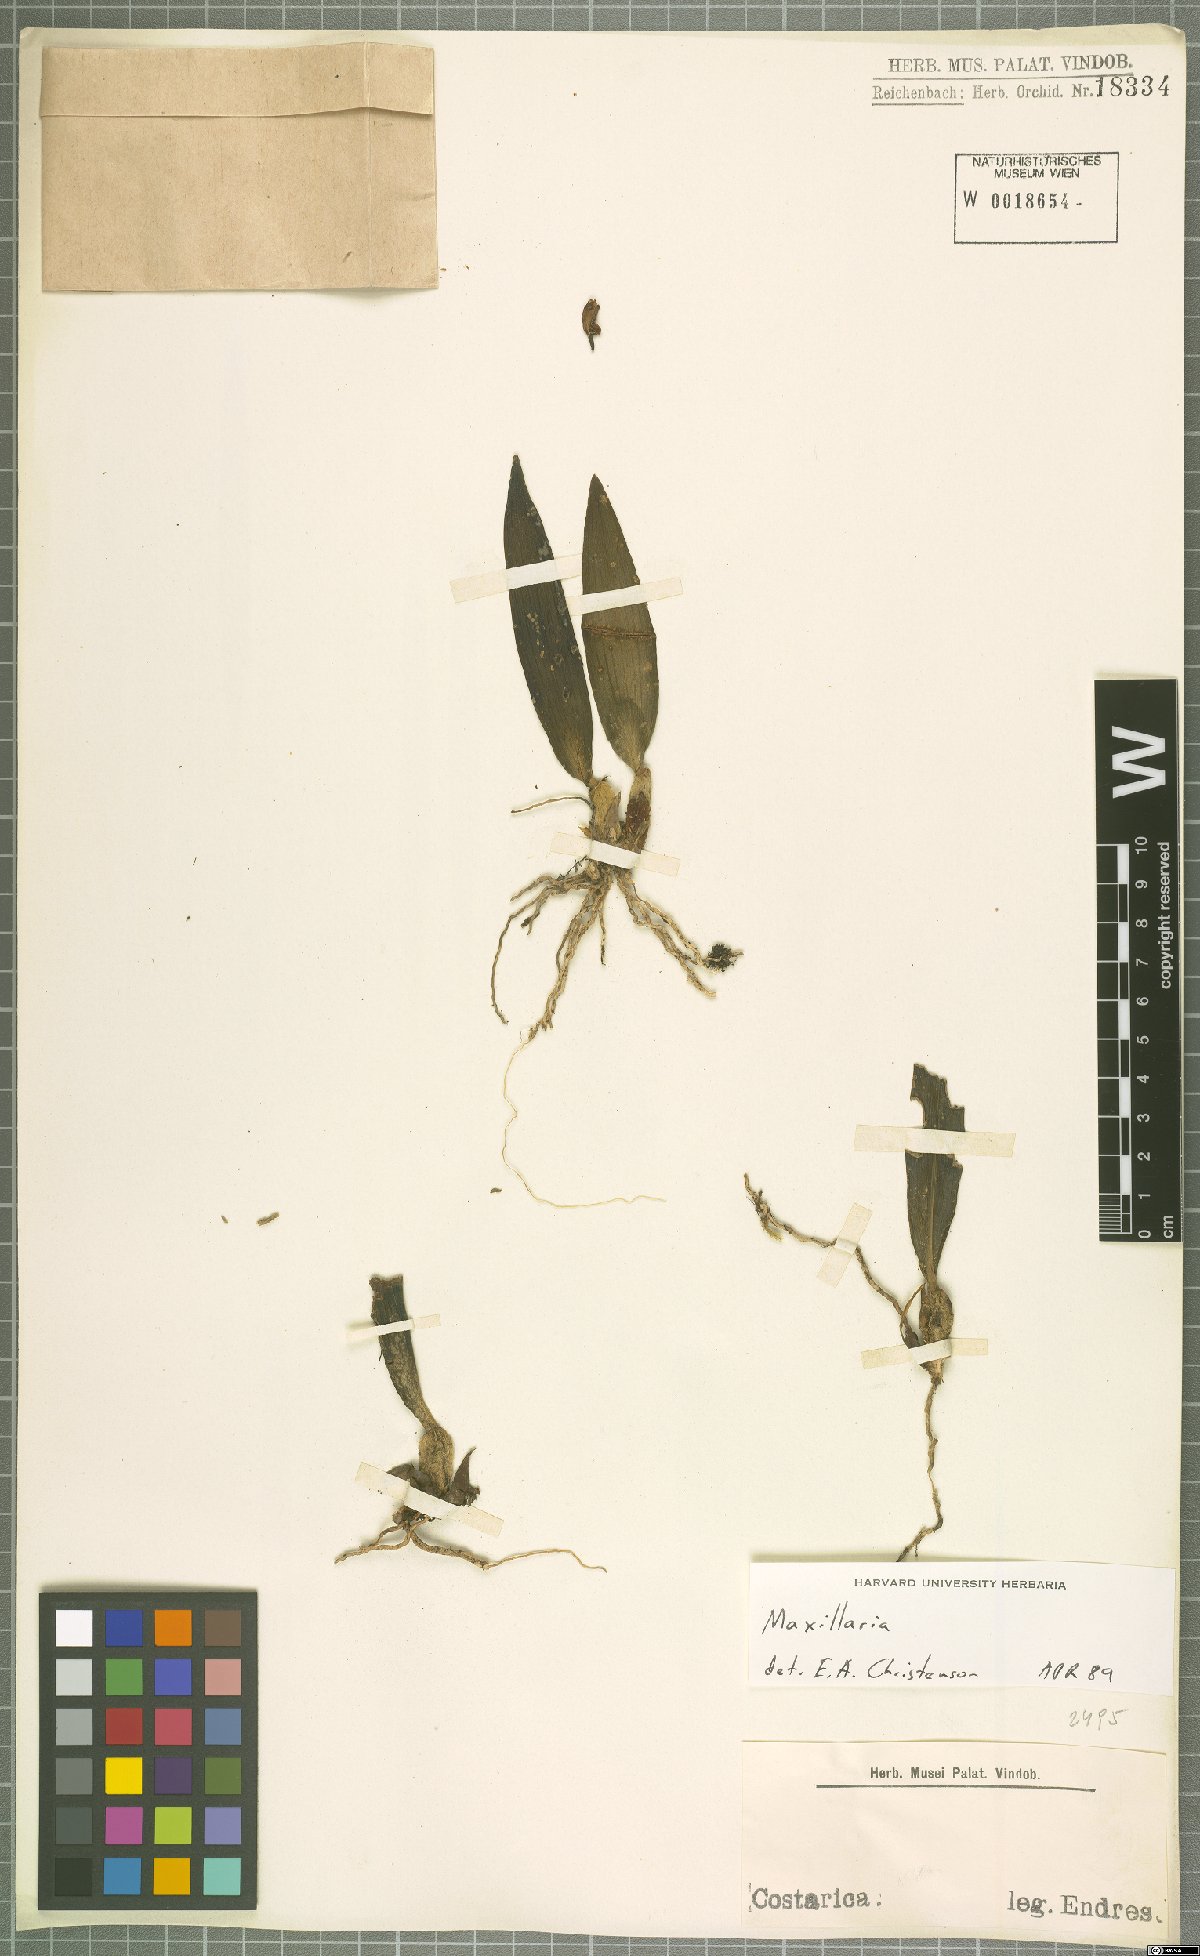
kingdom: Plantae
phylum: Tracheophyta
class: Liliopsida
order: Asparagales
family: Orchidaceae
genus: Maxillaria
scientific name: Maxillaria
